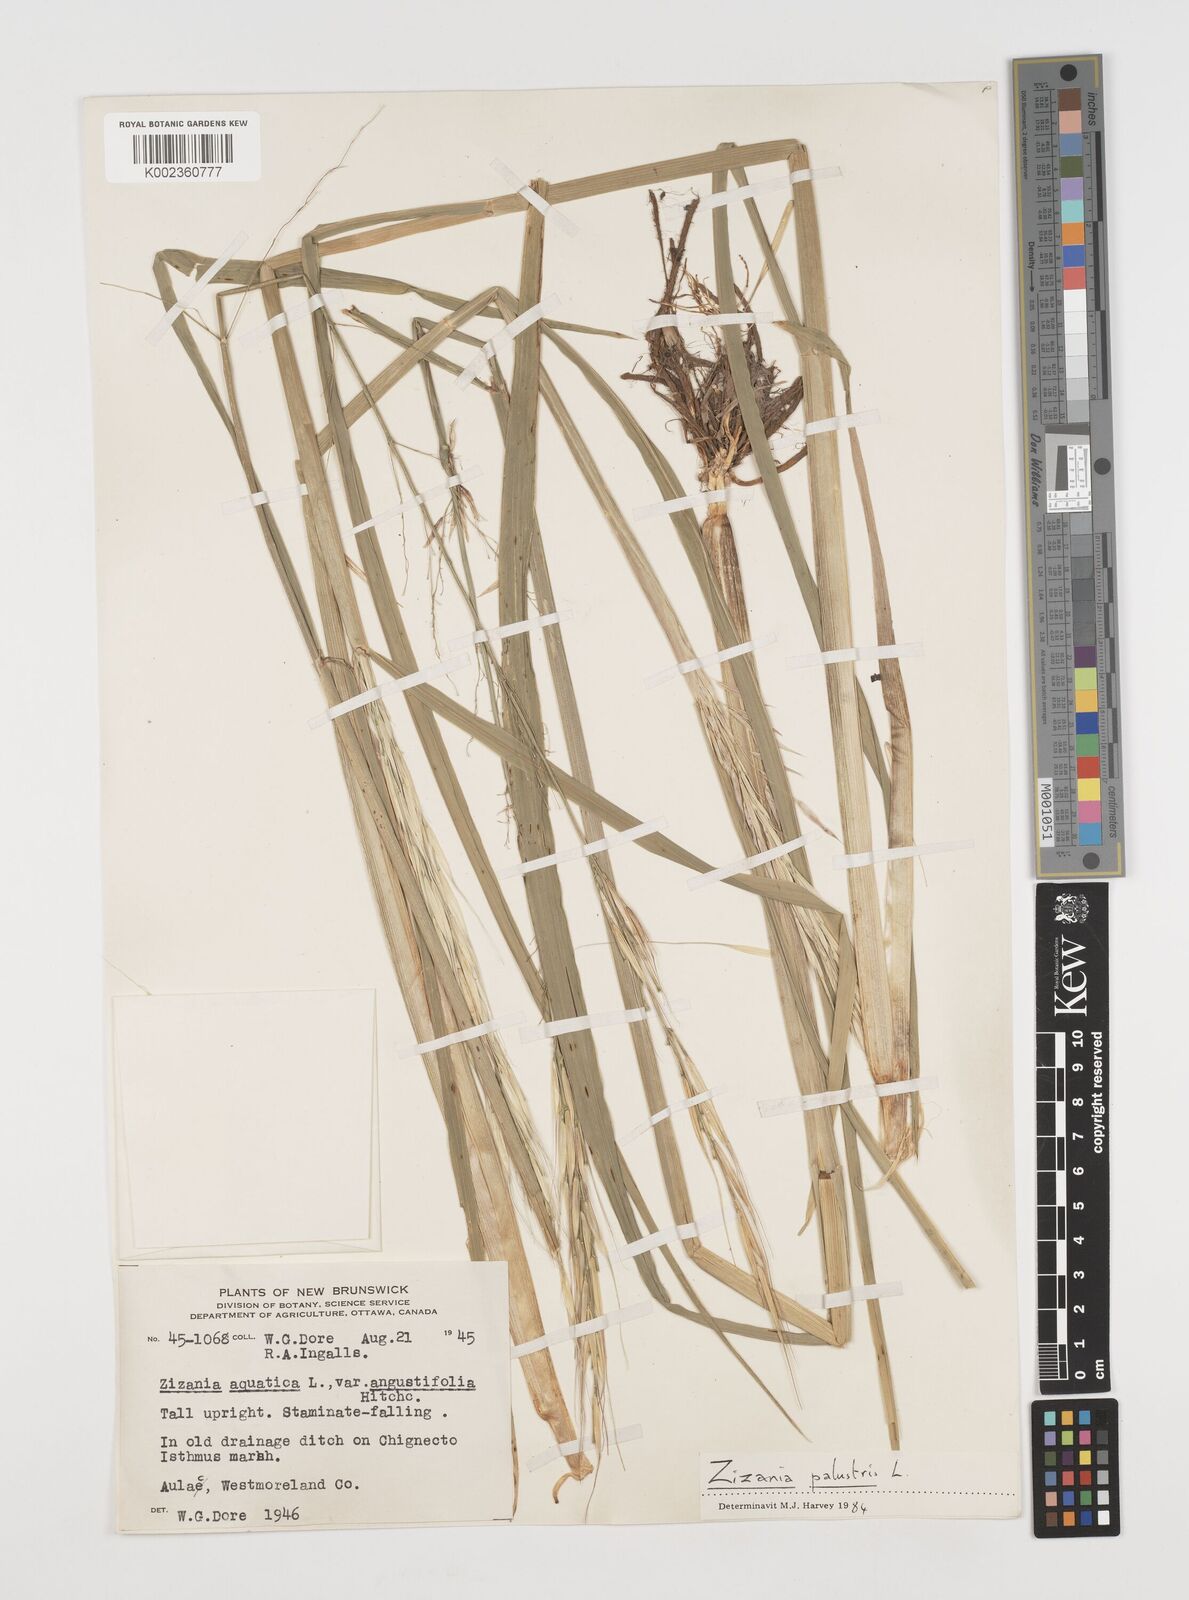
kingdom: Plantae
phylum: Tracheophyta
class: Liliopsida
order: Poales
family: Poaceae
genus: Zizania
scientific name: Zizania palustris
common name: Northern wild rice
